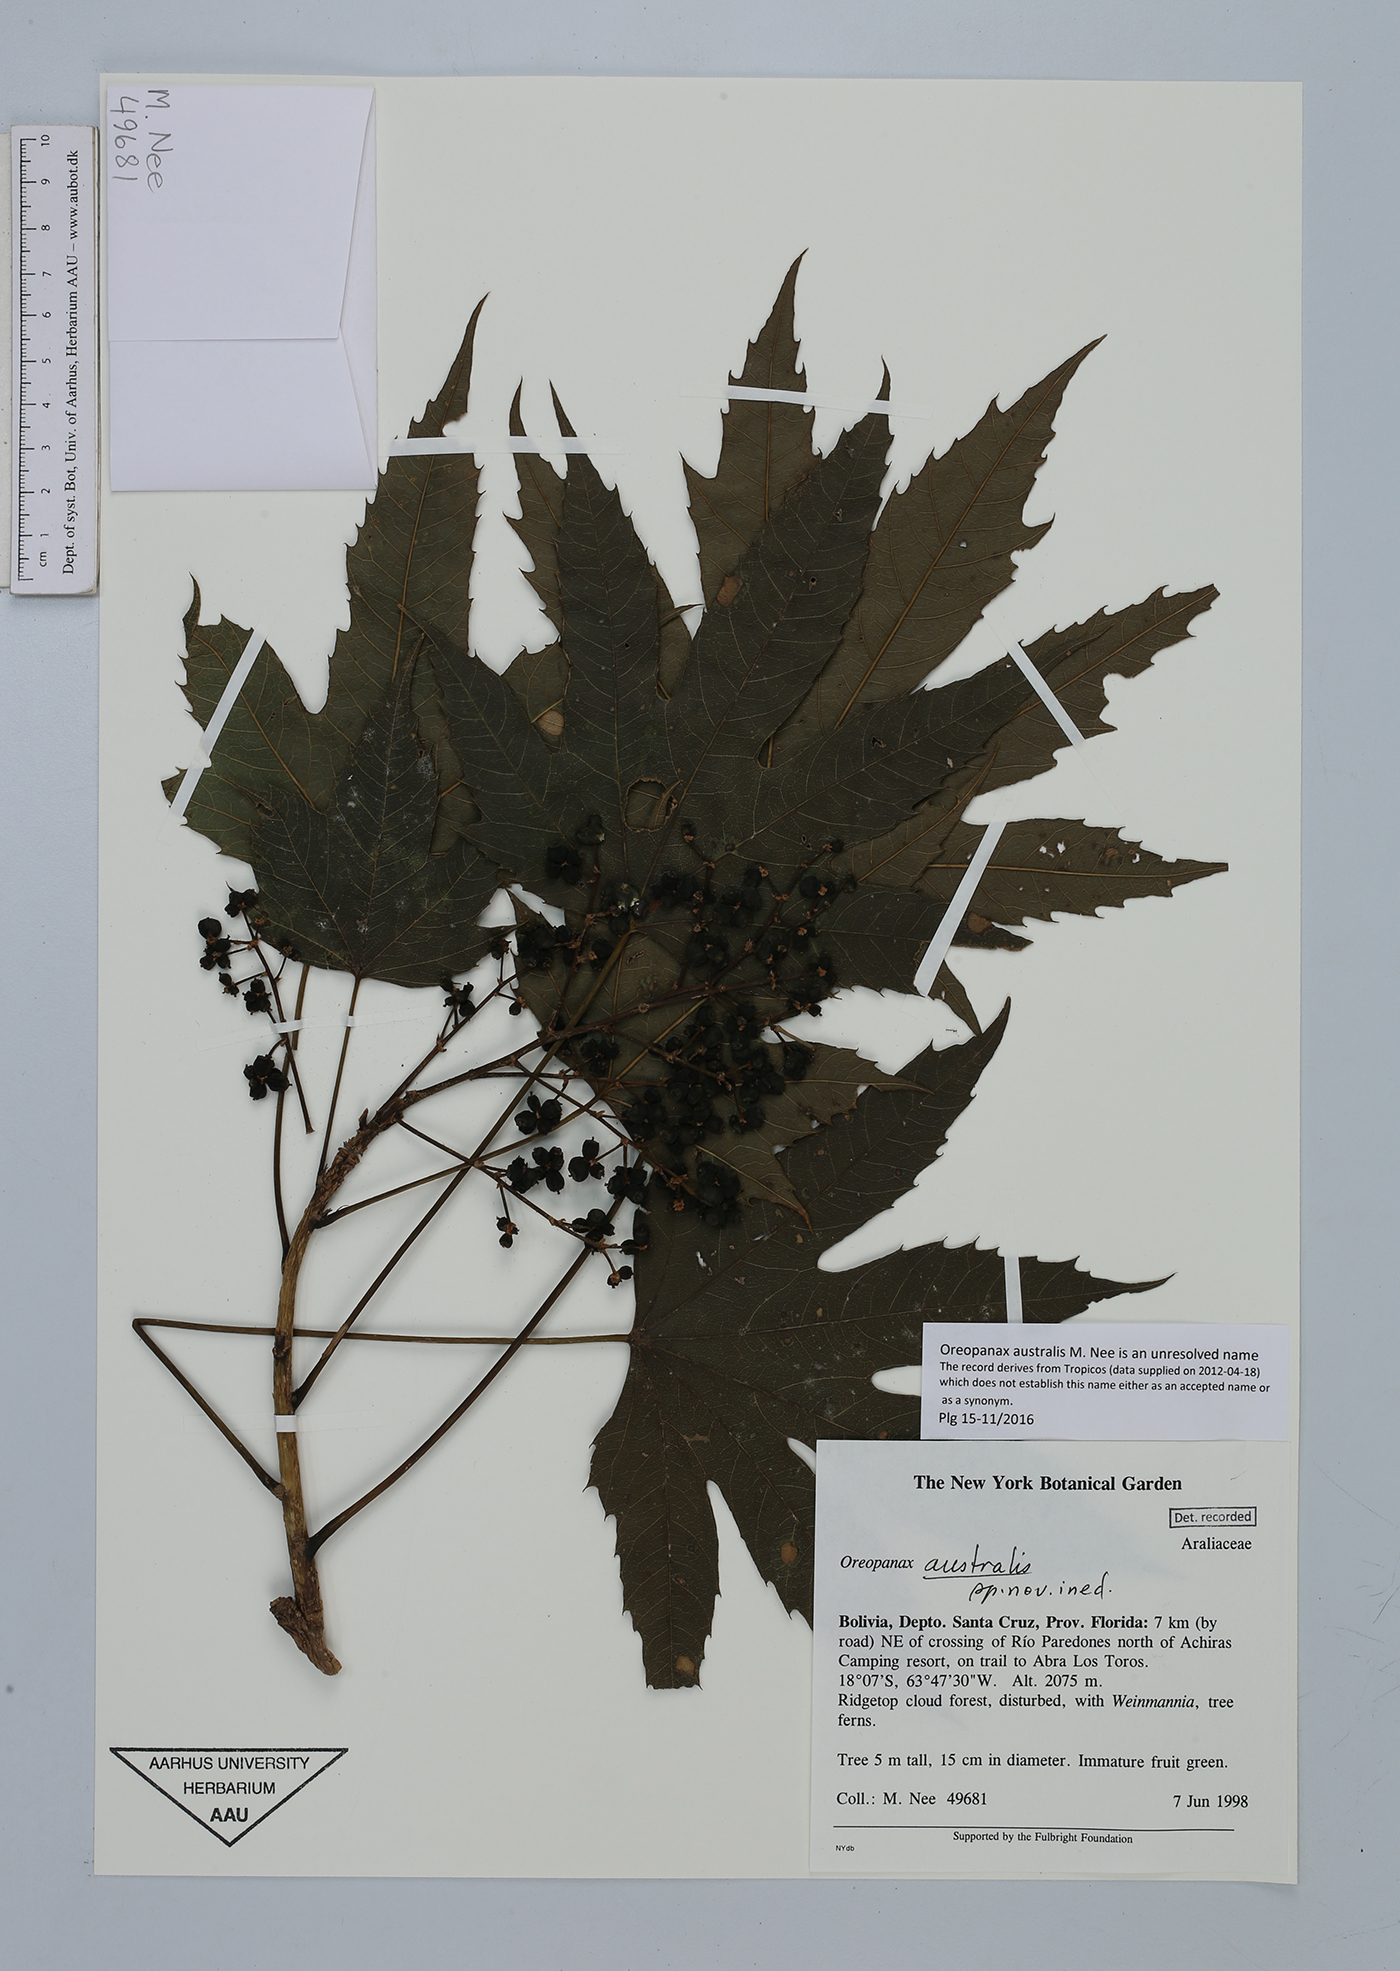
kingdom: Plantae
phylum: Tracheophyta
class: Magnoliopsida
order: Apiales
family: Araliaceae
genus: Oreopanax
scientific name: Oreopanax australis
